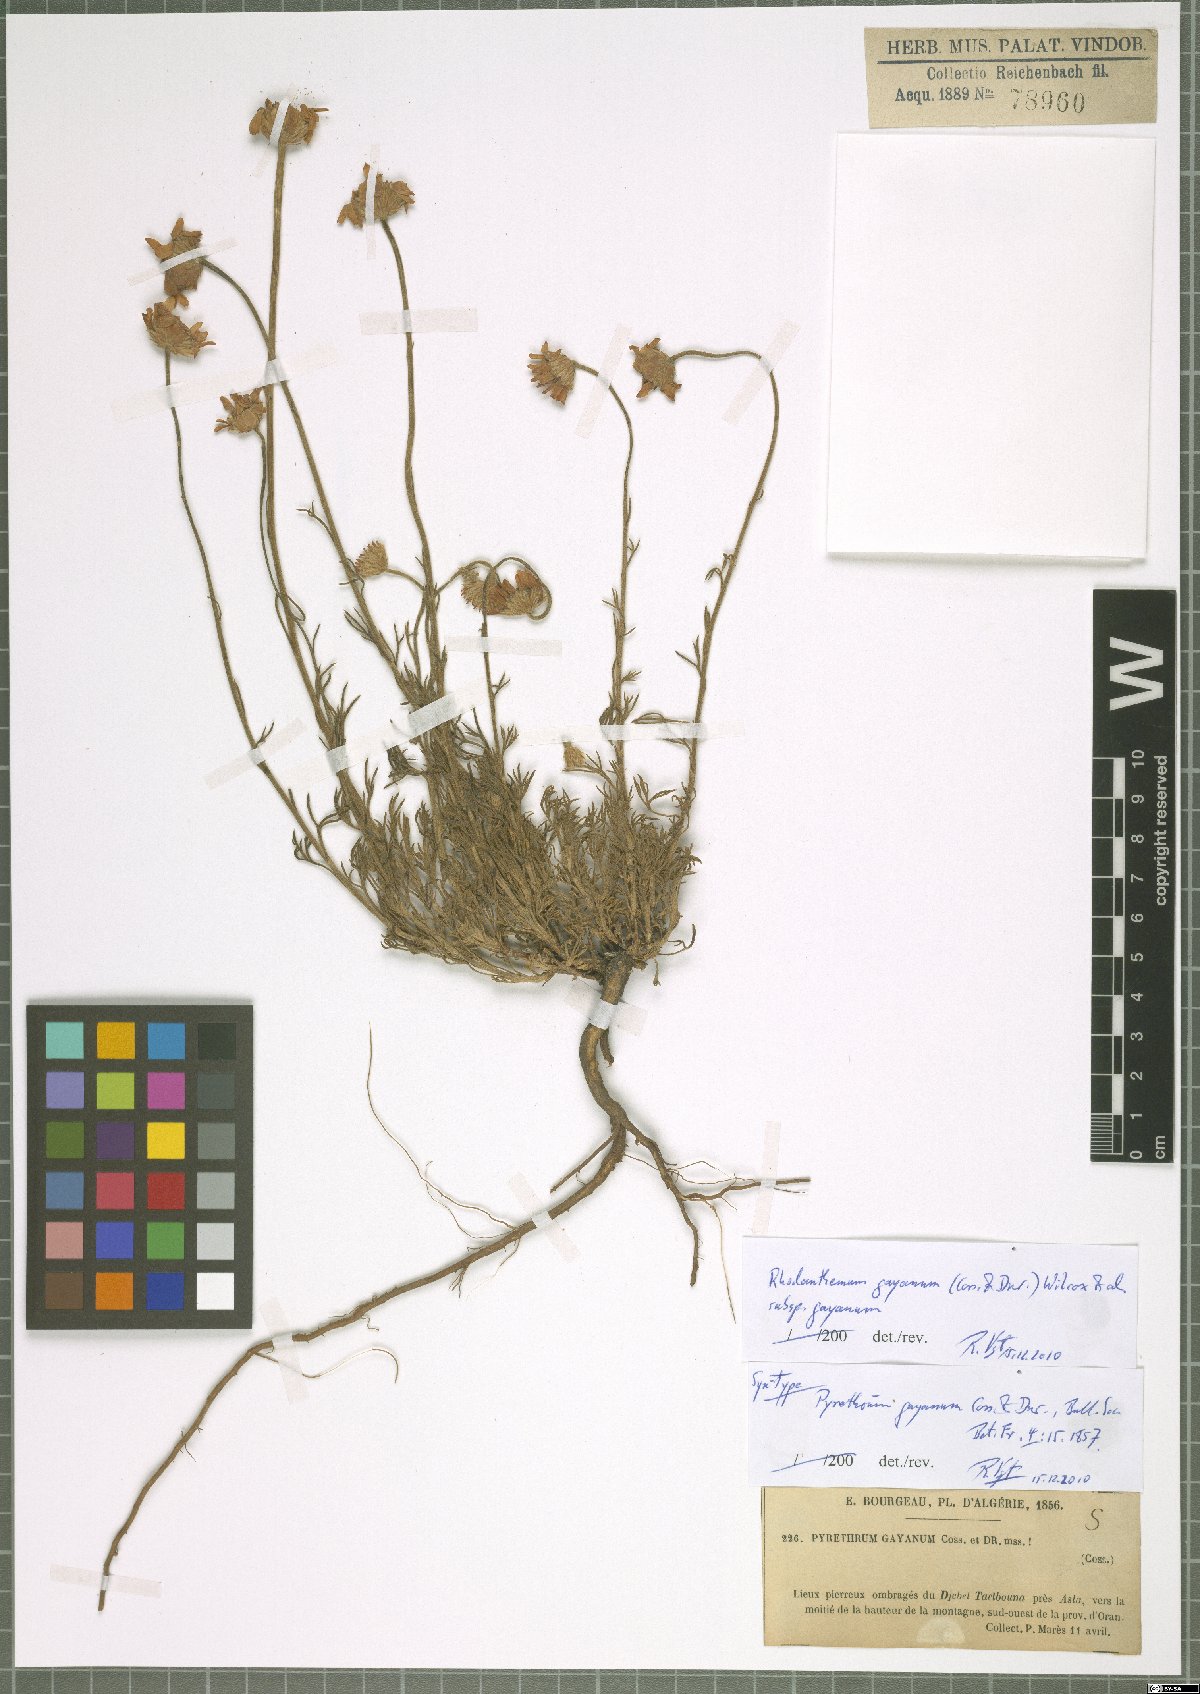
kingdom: Plantae
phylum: Tracheophyta
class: Magnoliopsida
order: Asterales
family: Asteraceae
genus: Rhodanthemum
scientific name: Rhodanthemum gayanum
